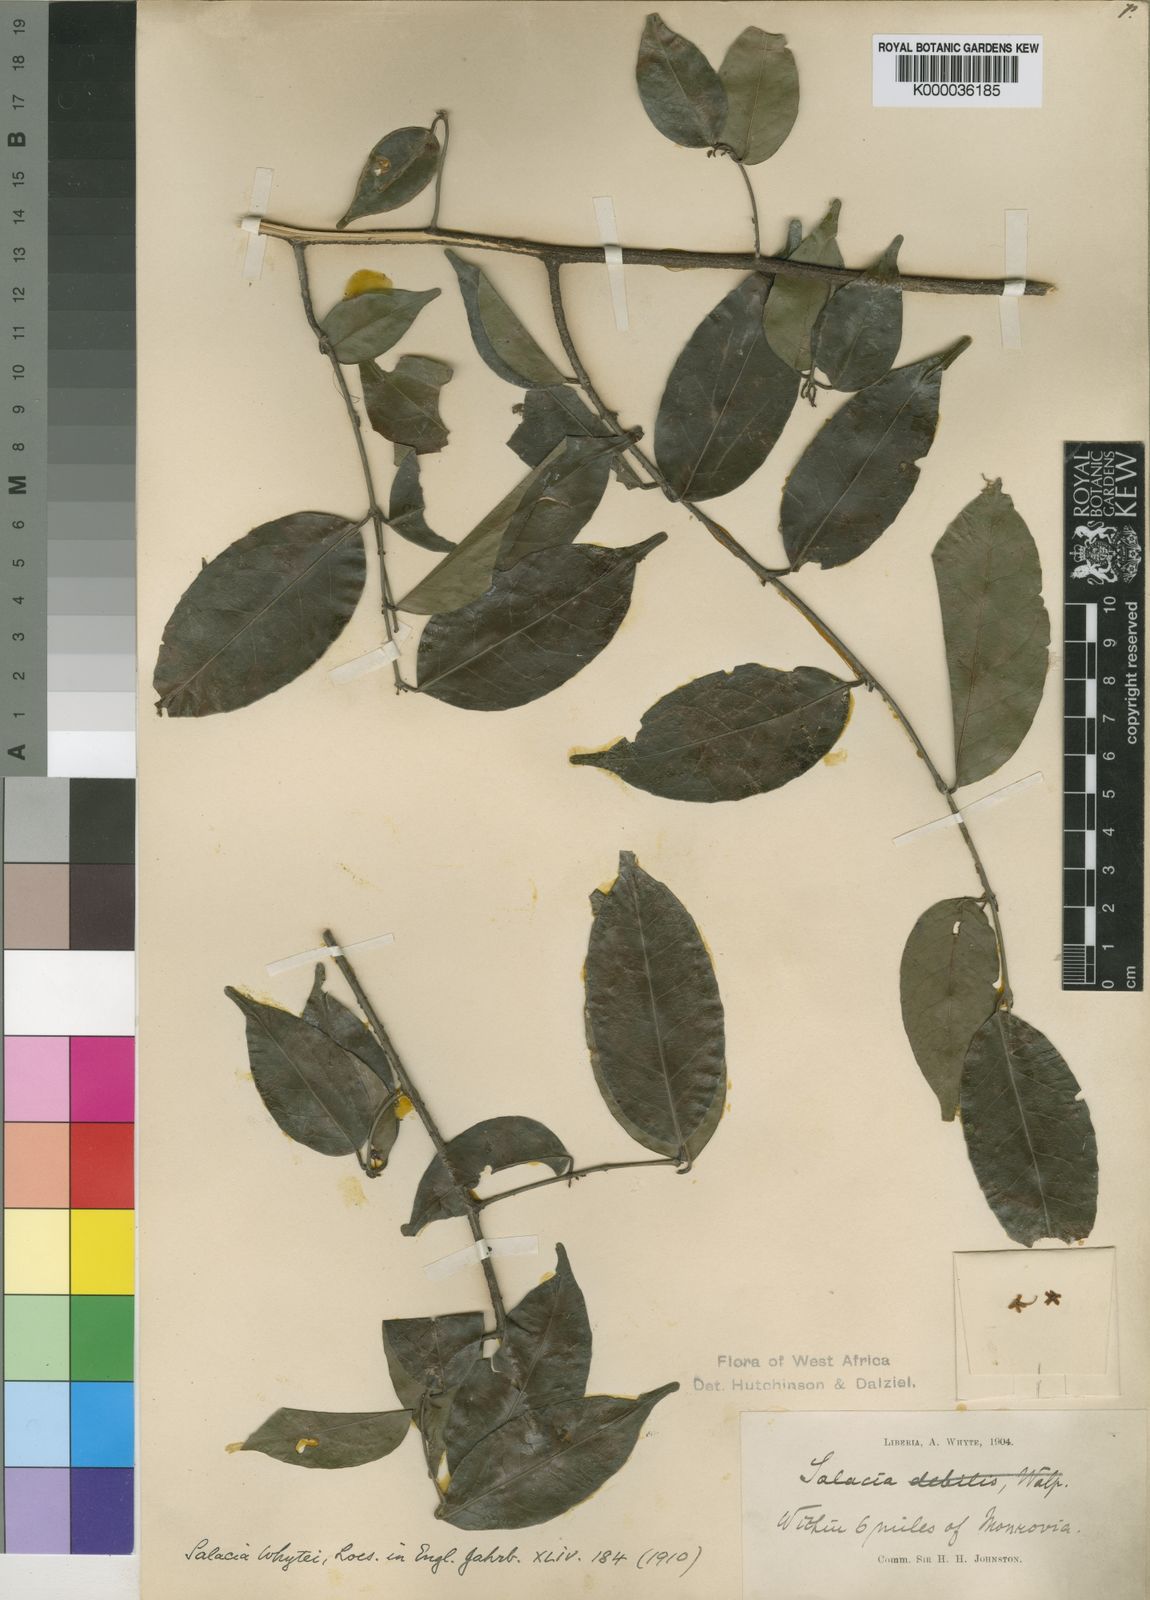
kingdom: Plantae
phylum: Tracheophyta
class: Magnoliopsida
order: Celastrales
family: Celastraceae
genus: Salacia
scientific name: Salacia whytei
